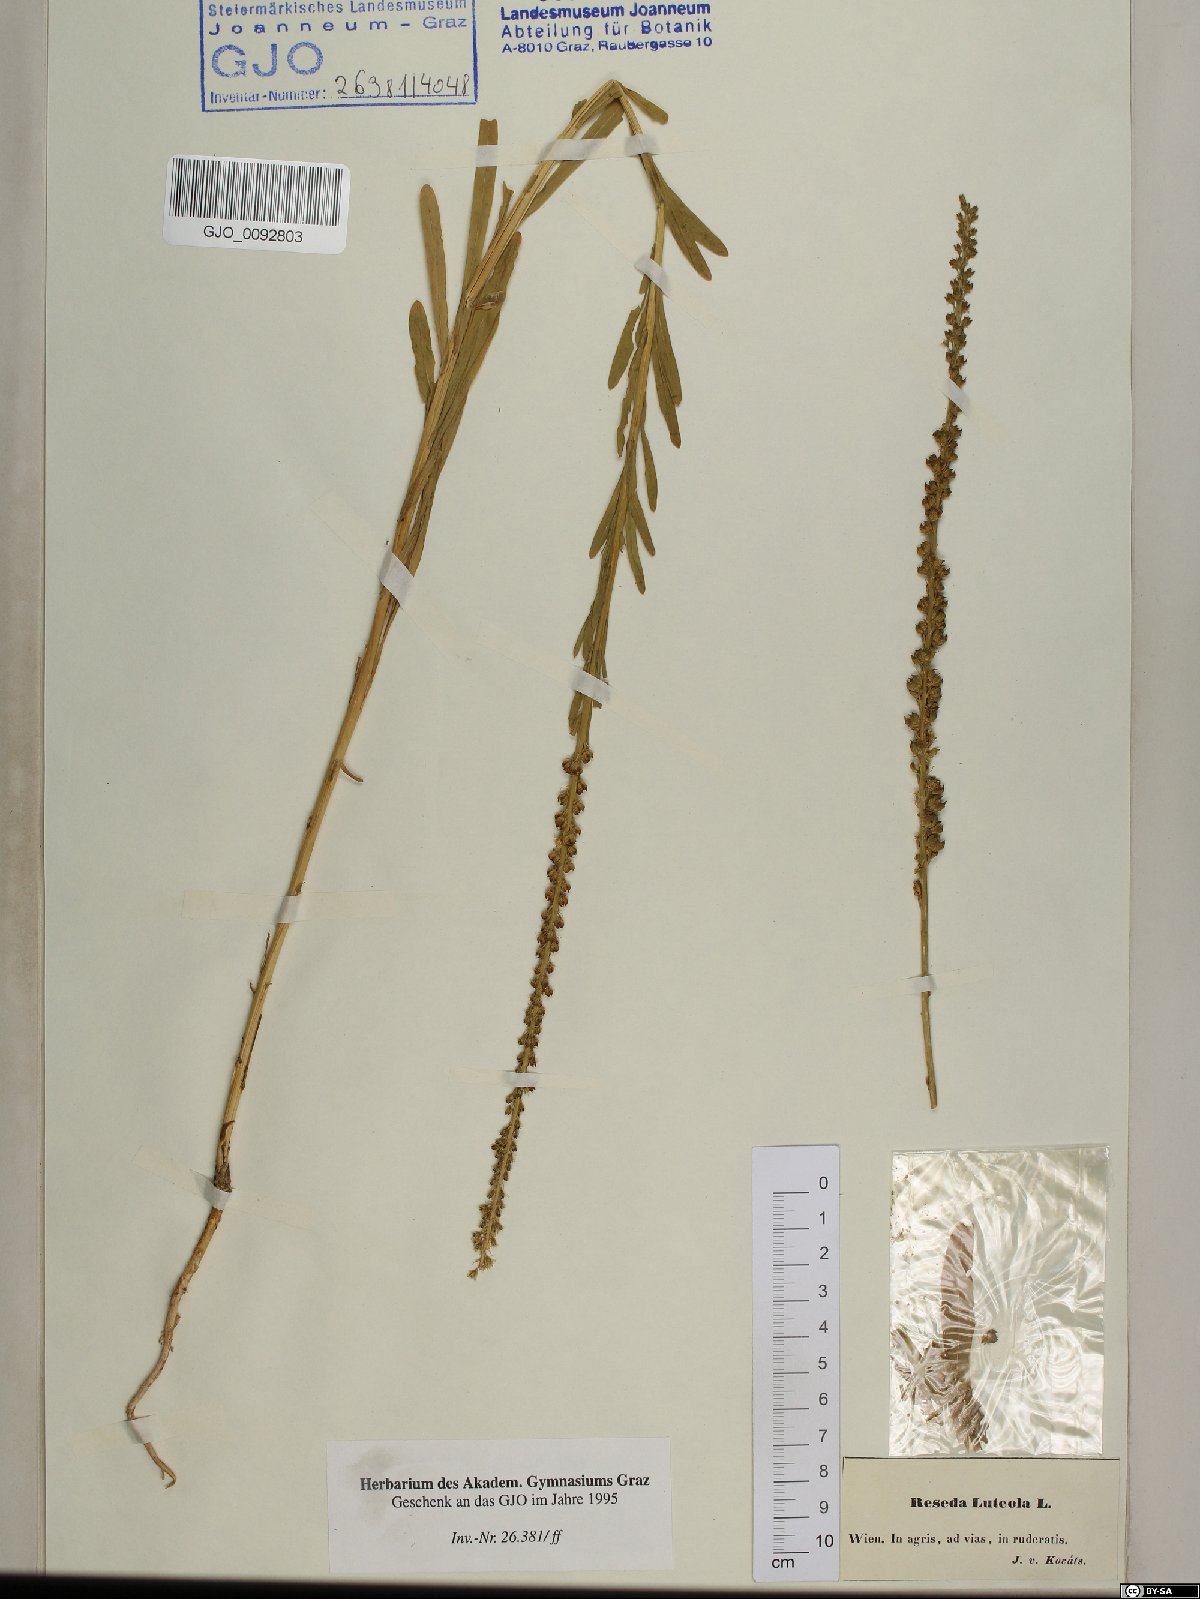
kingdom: Plantae
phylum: Tracheophyta
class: Magnoliopsida
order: Brassicales
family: Resedaceae
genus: Reseda
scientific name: Reseda luteola
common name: Weld
